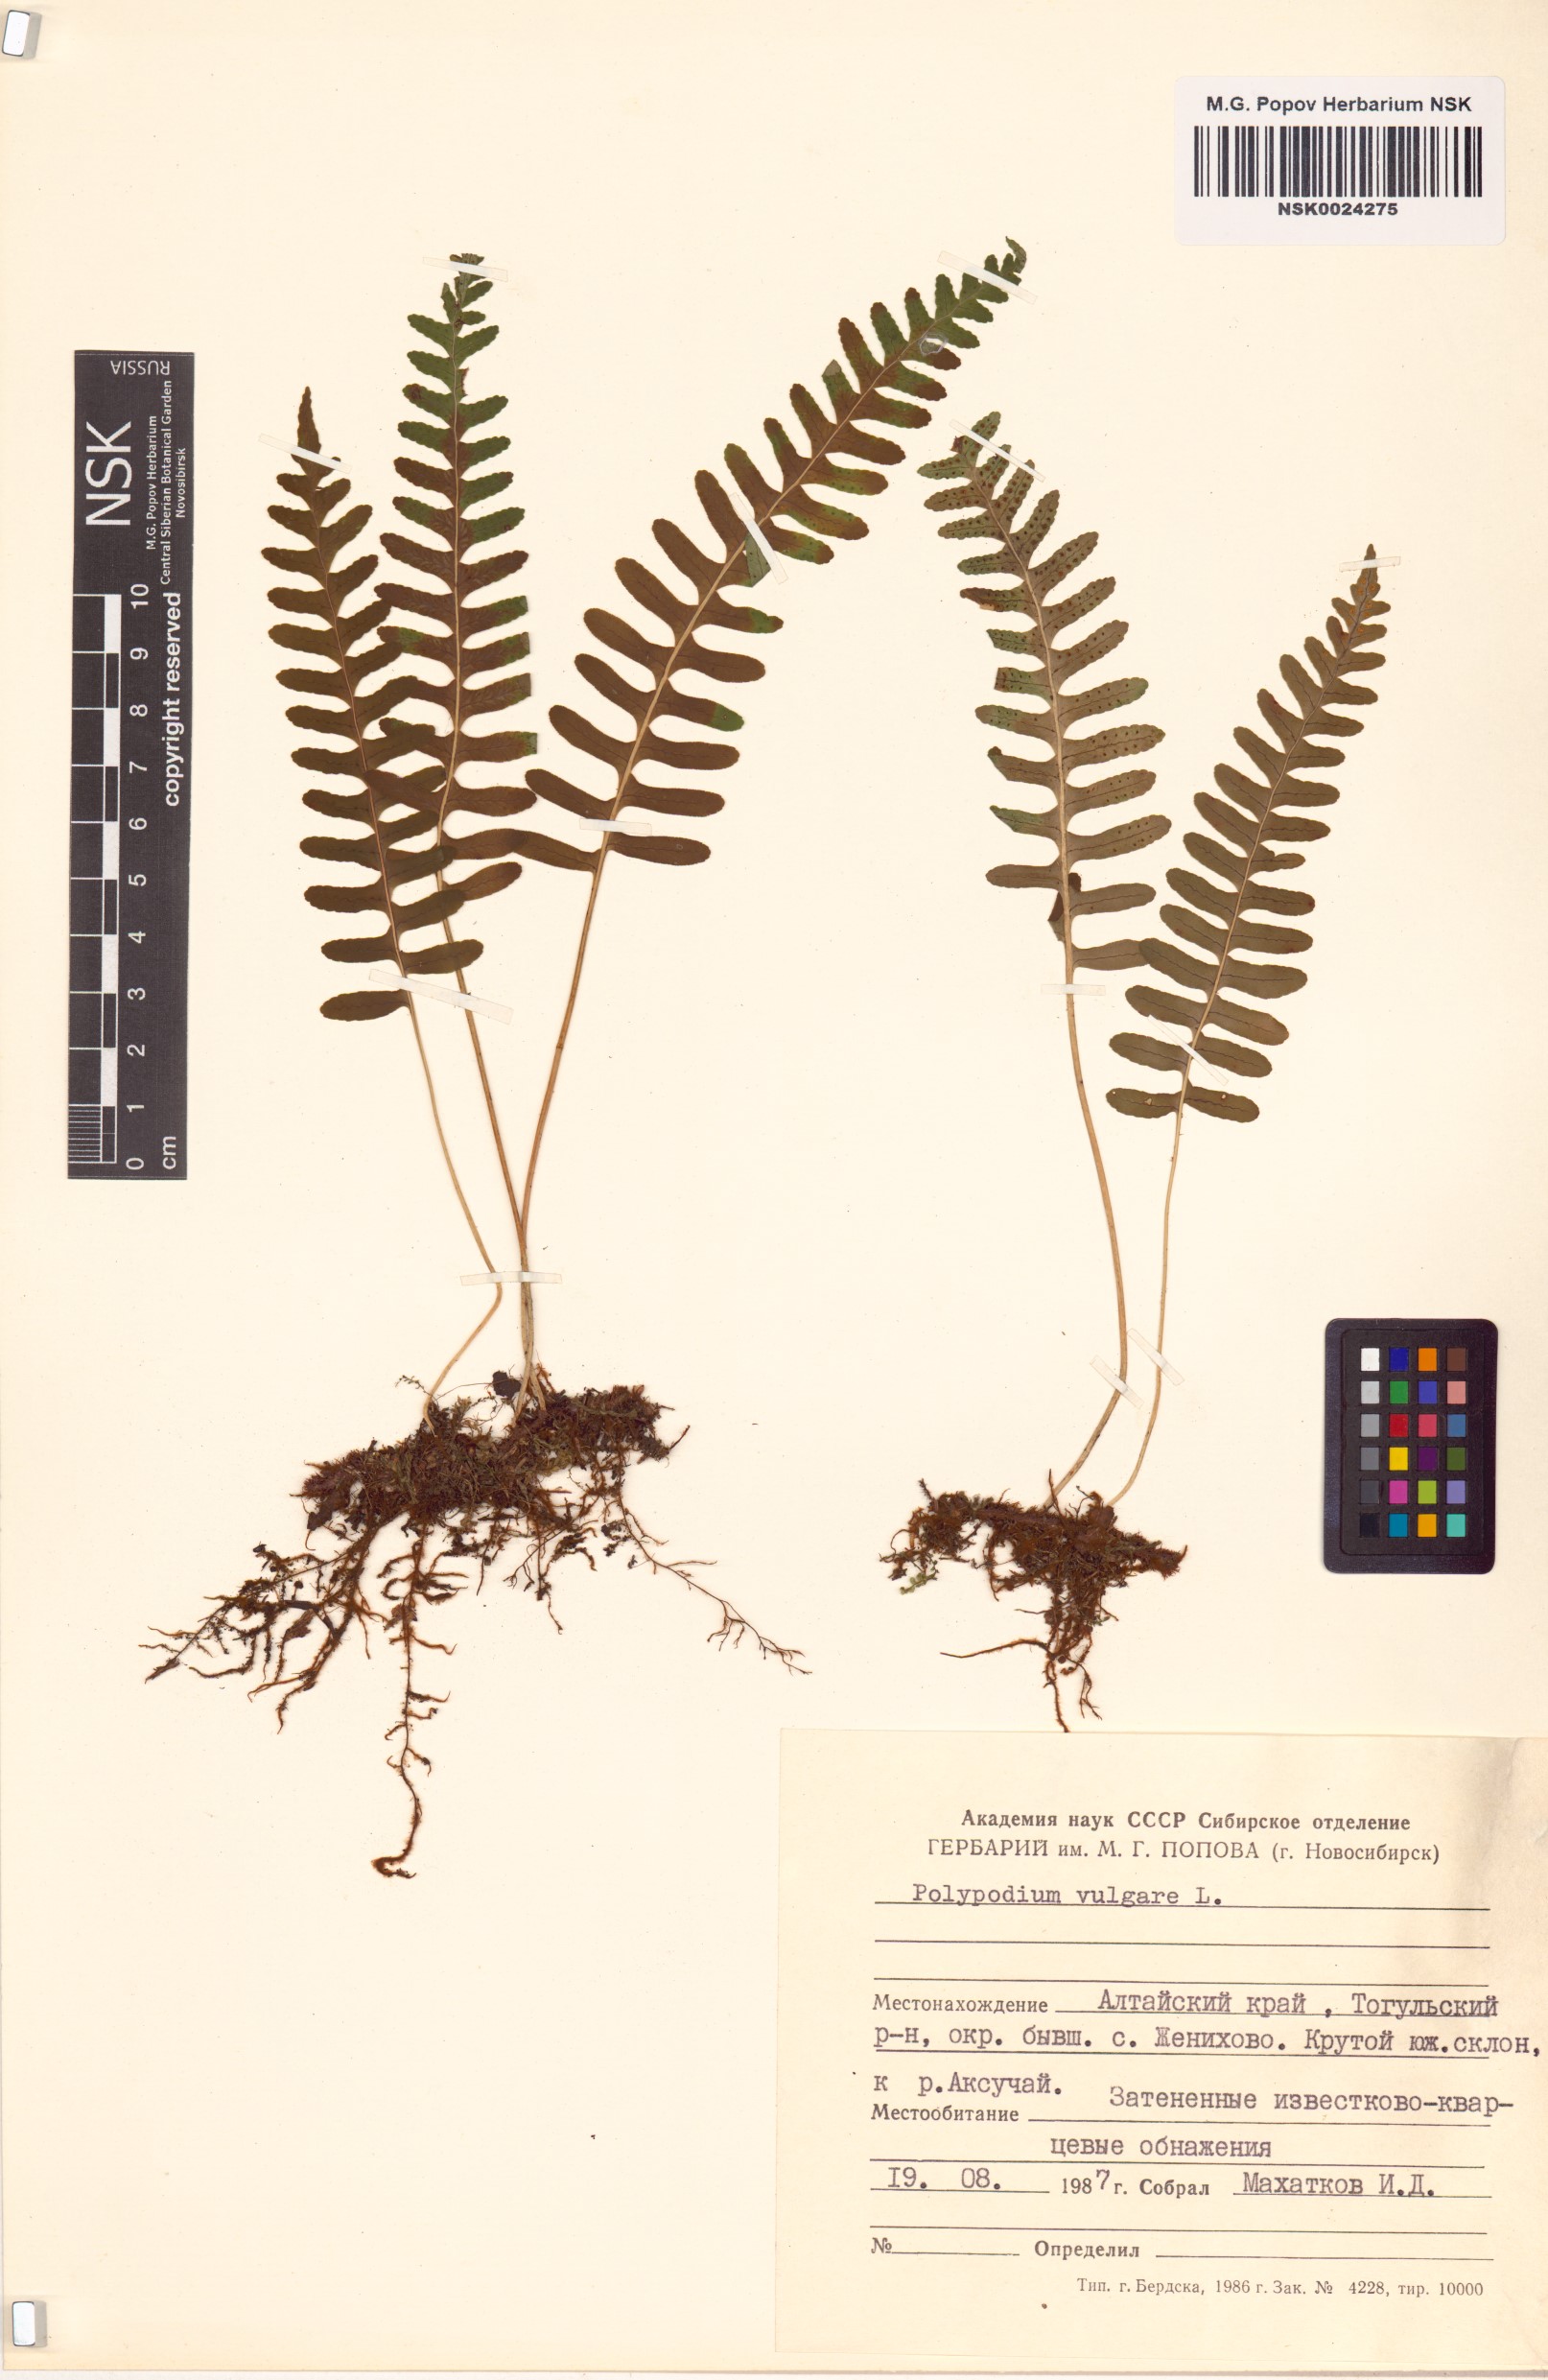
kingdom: Plantae
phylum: Tracheophyta
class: Polypodiopsida
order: Polypodiales
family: Polypodiaceae
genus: Polypodium
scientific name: Polypodium vulgare
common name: Common polypody
